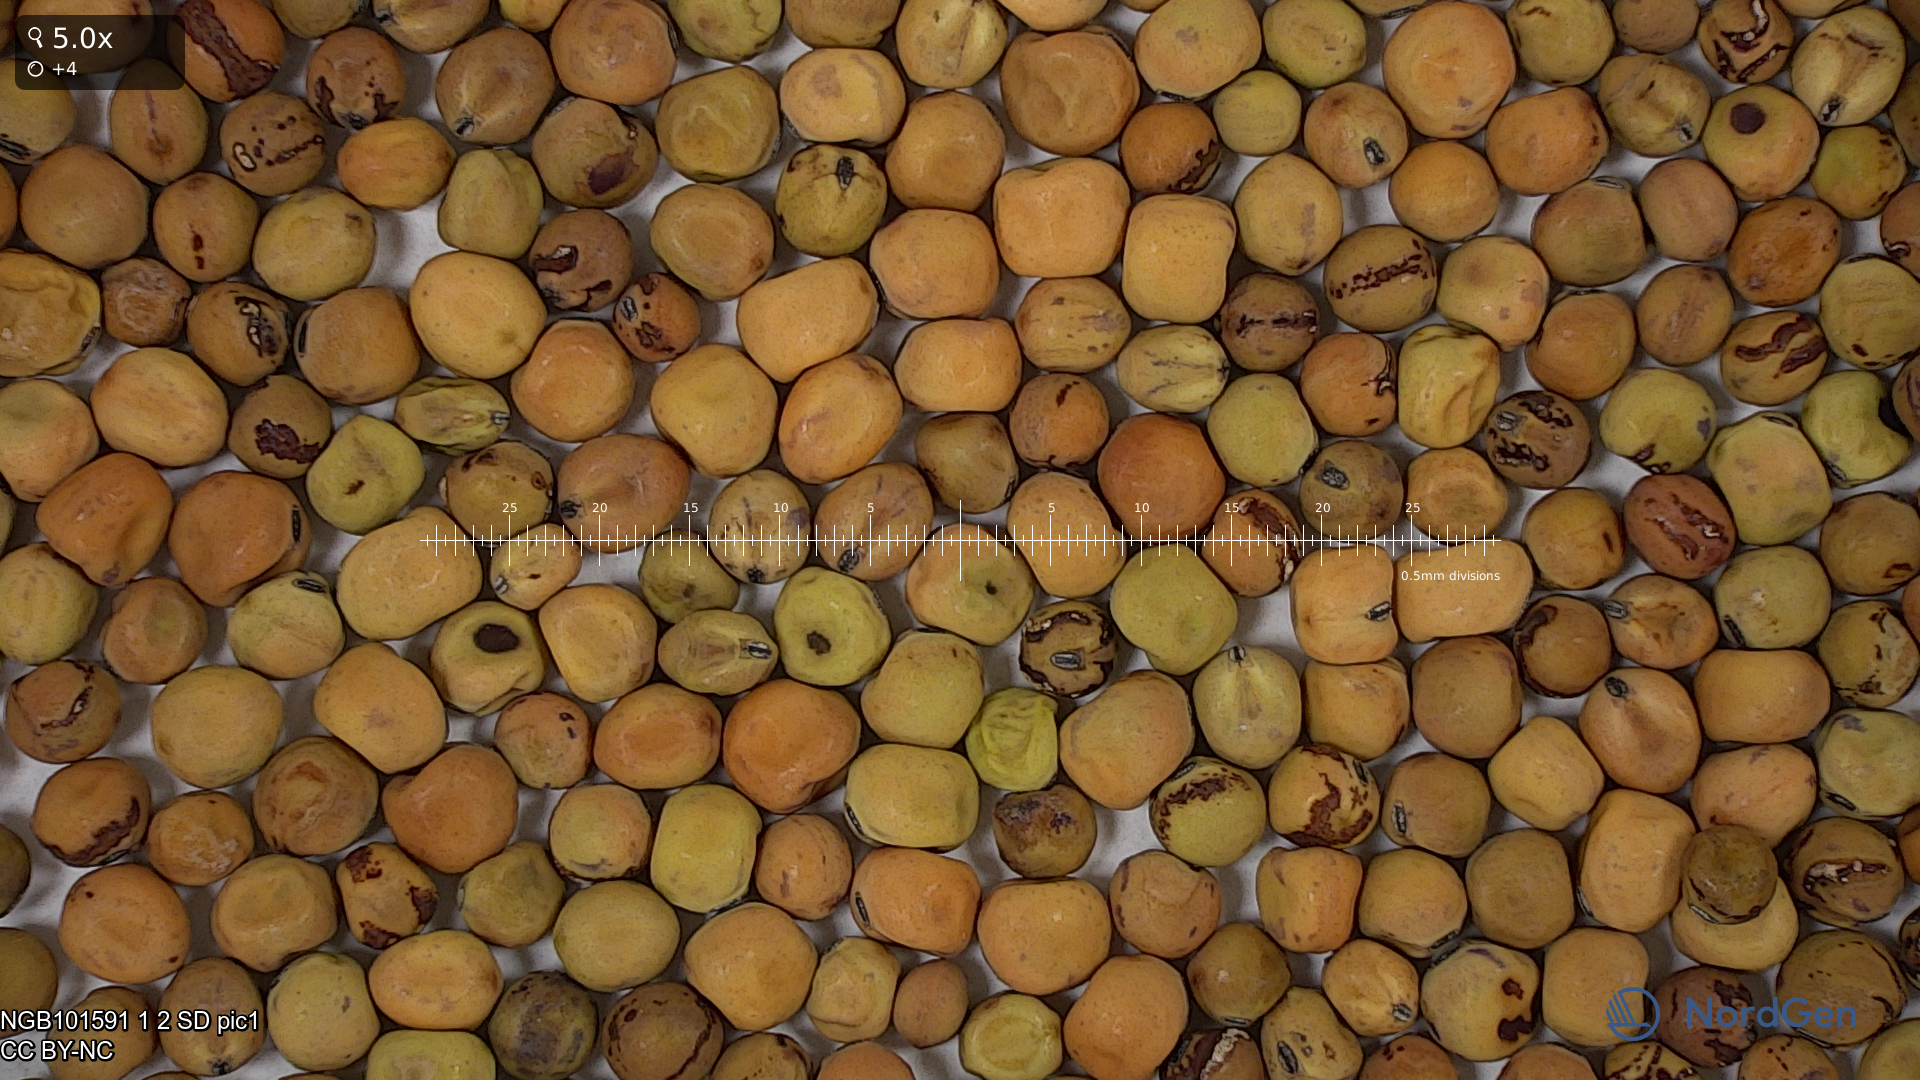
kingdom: Plantae
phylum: Tracheophyta
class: Magnoliopsida
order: Fabales
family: Fabaceae
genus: Lathyrus
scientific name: Lathyrus oleraceus
